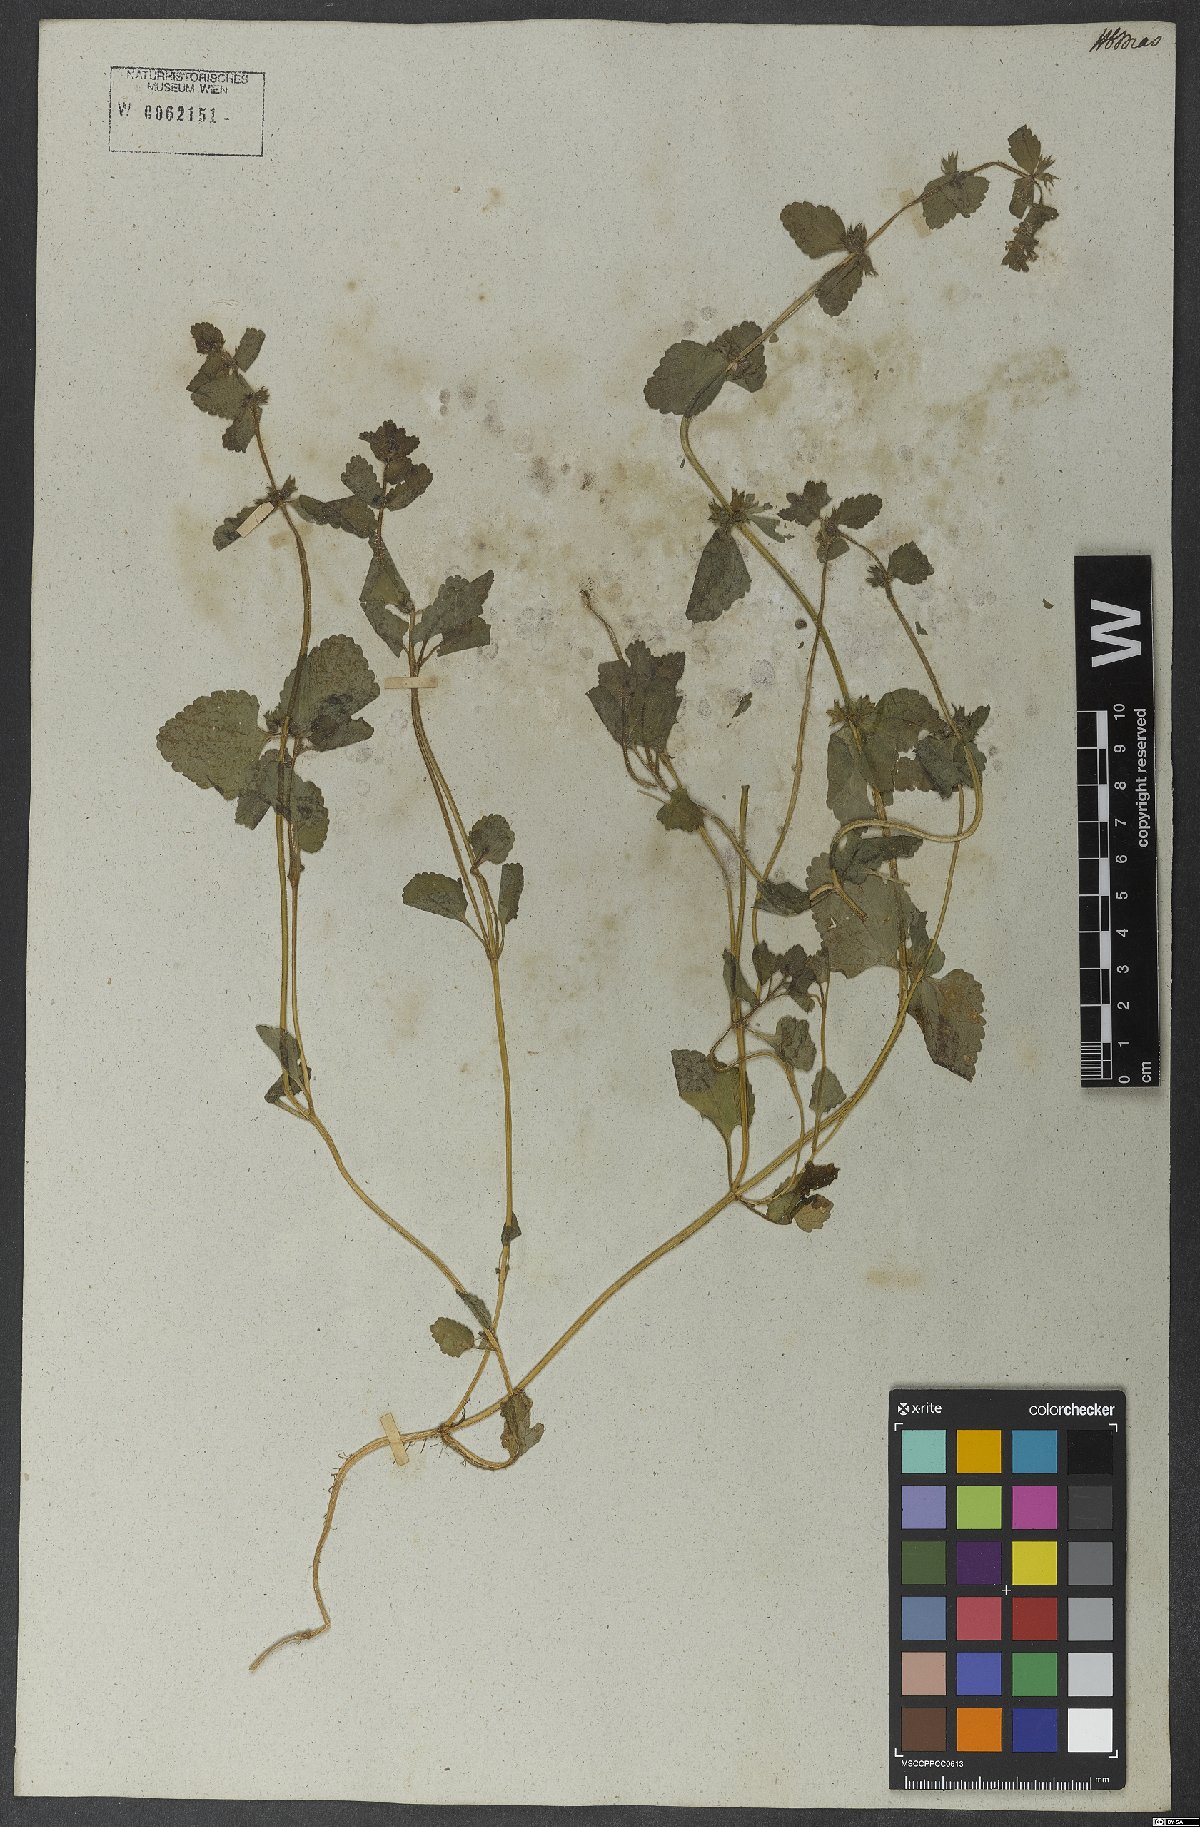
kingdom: Plantae
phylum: Tracheophyta
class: Magnoliopsida
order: Lamiales
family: Lamiaceae
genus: Stachys
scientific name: Stachys arvensis
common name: Field woundwort
